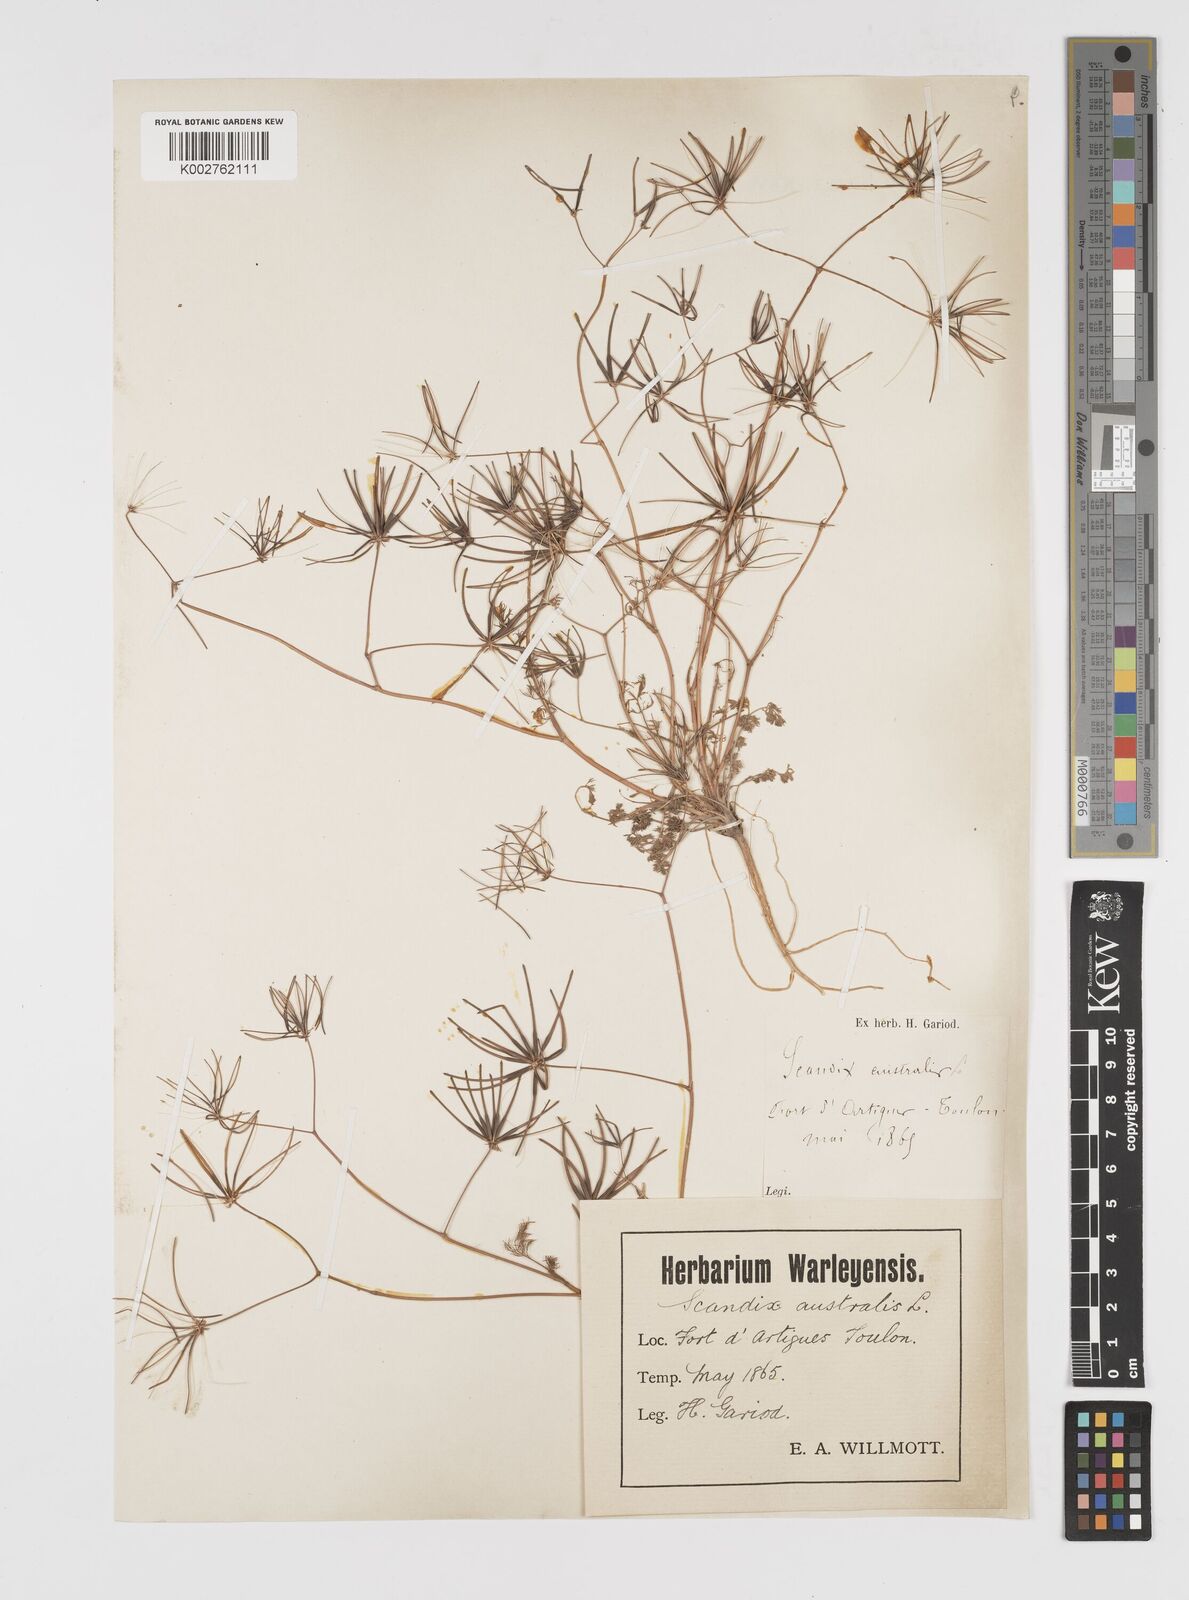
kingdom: Plantae
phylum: Tracheophyta
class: Magnoliopsida
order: Apiales
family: Apiaceae
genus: Scandix
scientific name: Scandix australis
